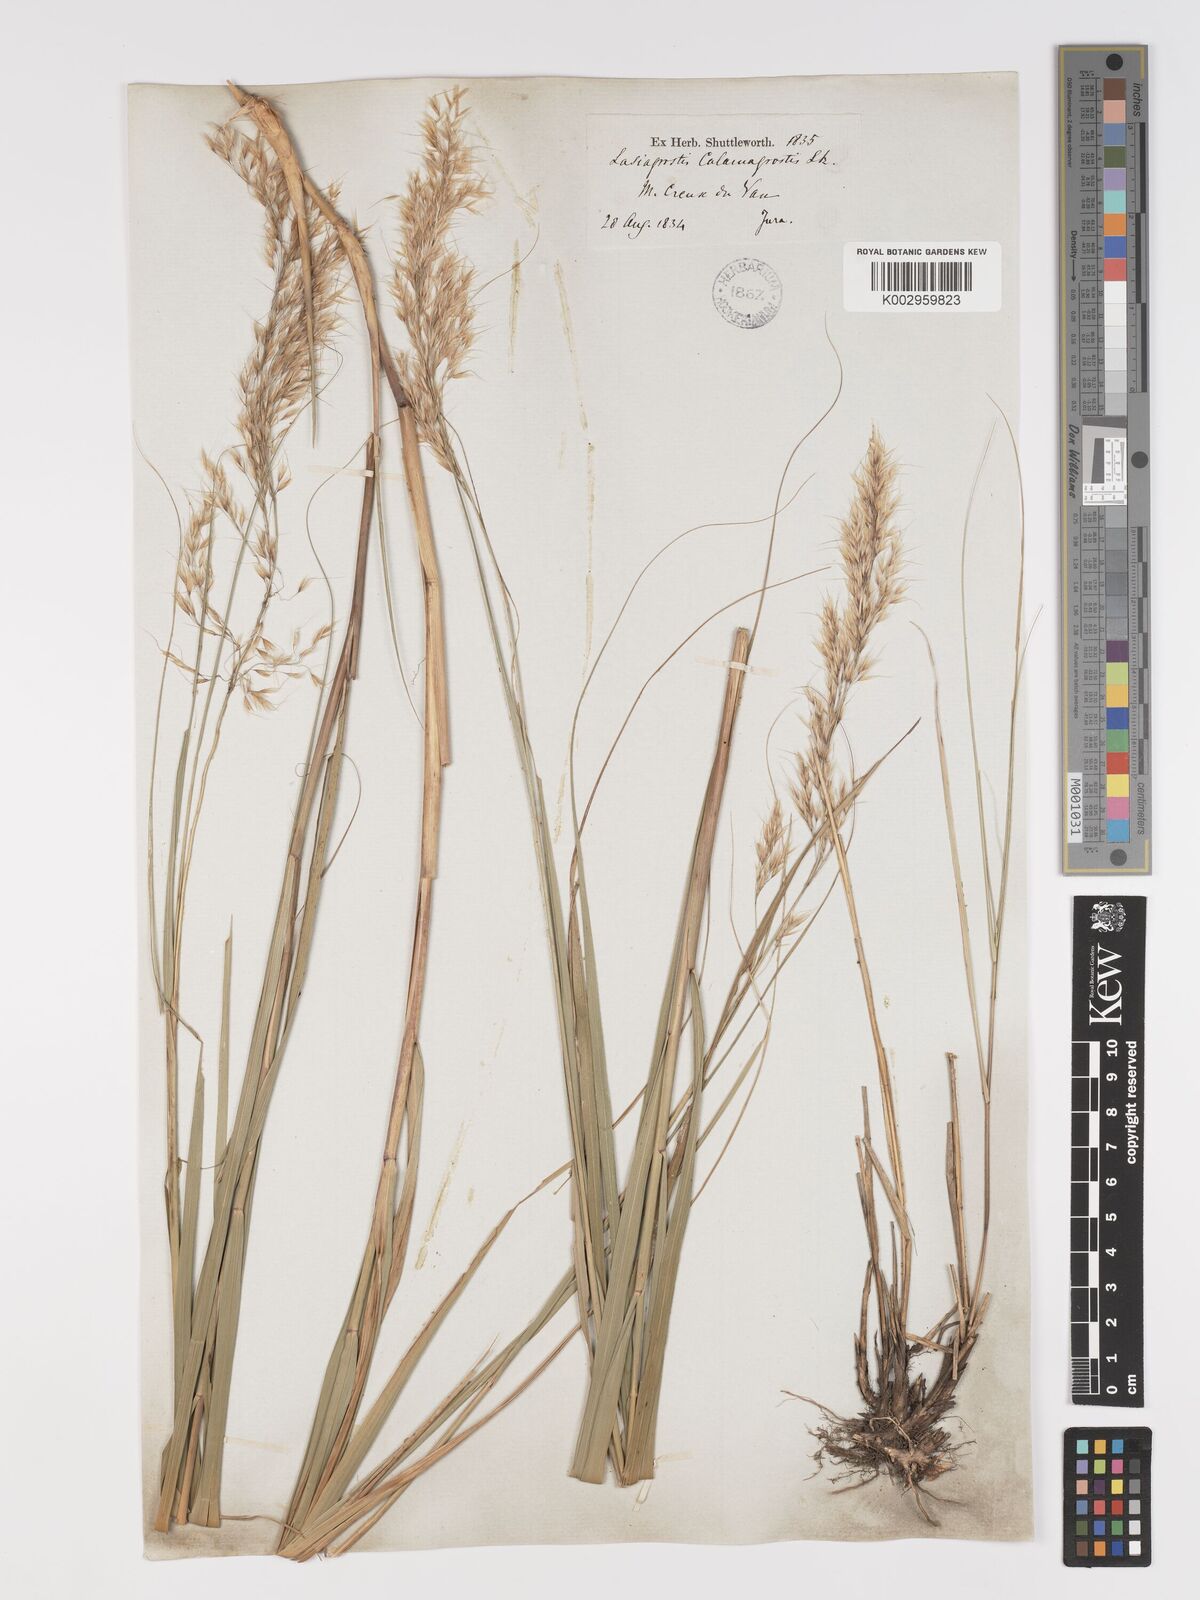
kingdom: Plantae
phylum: Tracheophyta
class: Liliopsida
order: Poales
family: Poaceae
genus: Achnatherum
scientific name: Achnatherum calamagrostis
